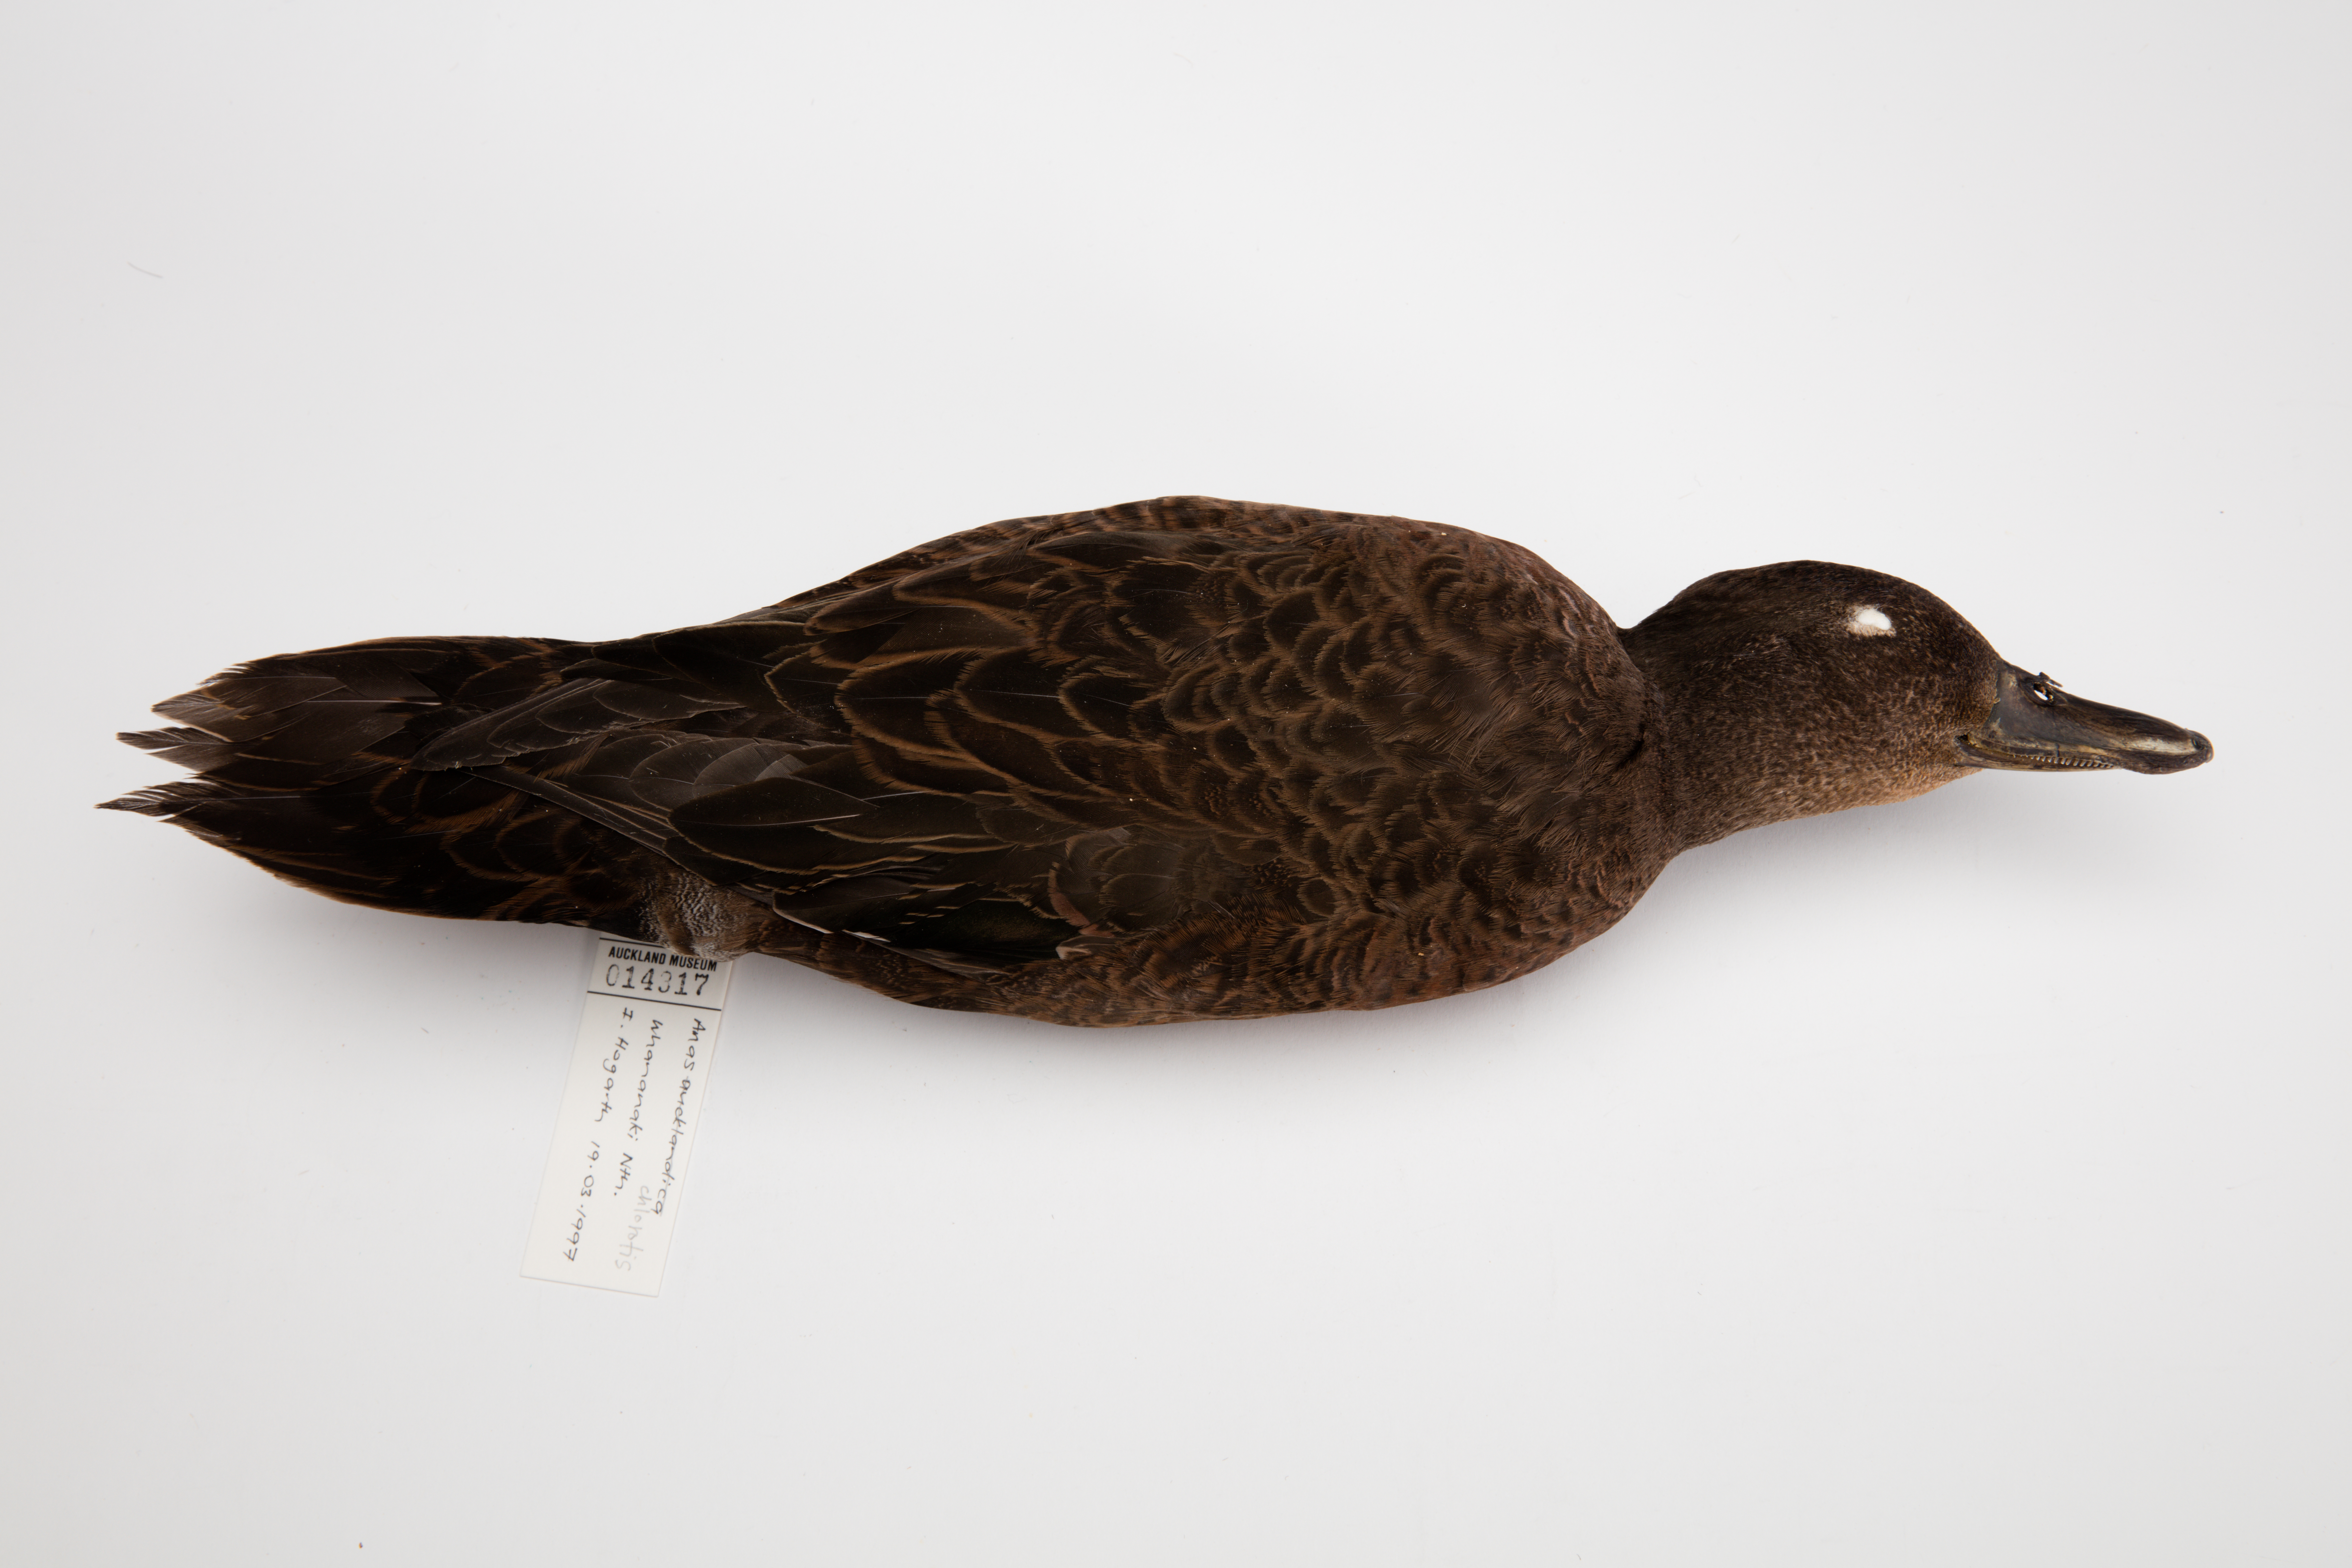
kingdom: Animalia
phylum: Chordata
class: Aves
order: Anseriformes
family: Anatidae
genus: Anas
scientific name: Anas chlorotis
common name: Brown teal
